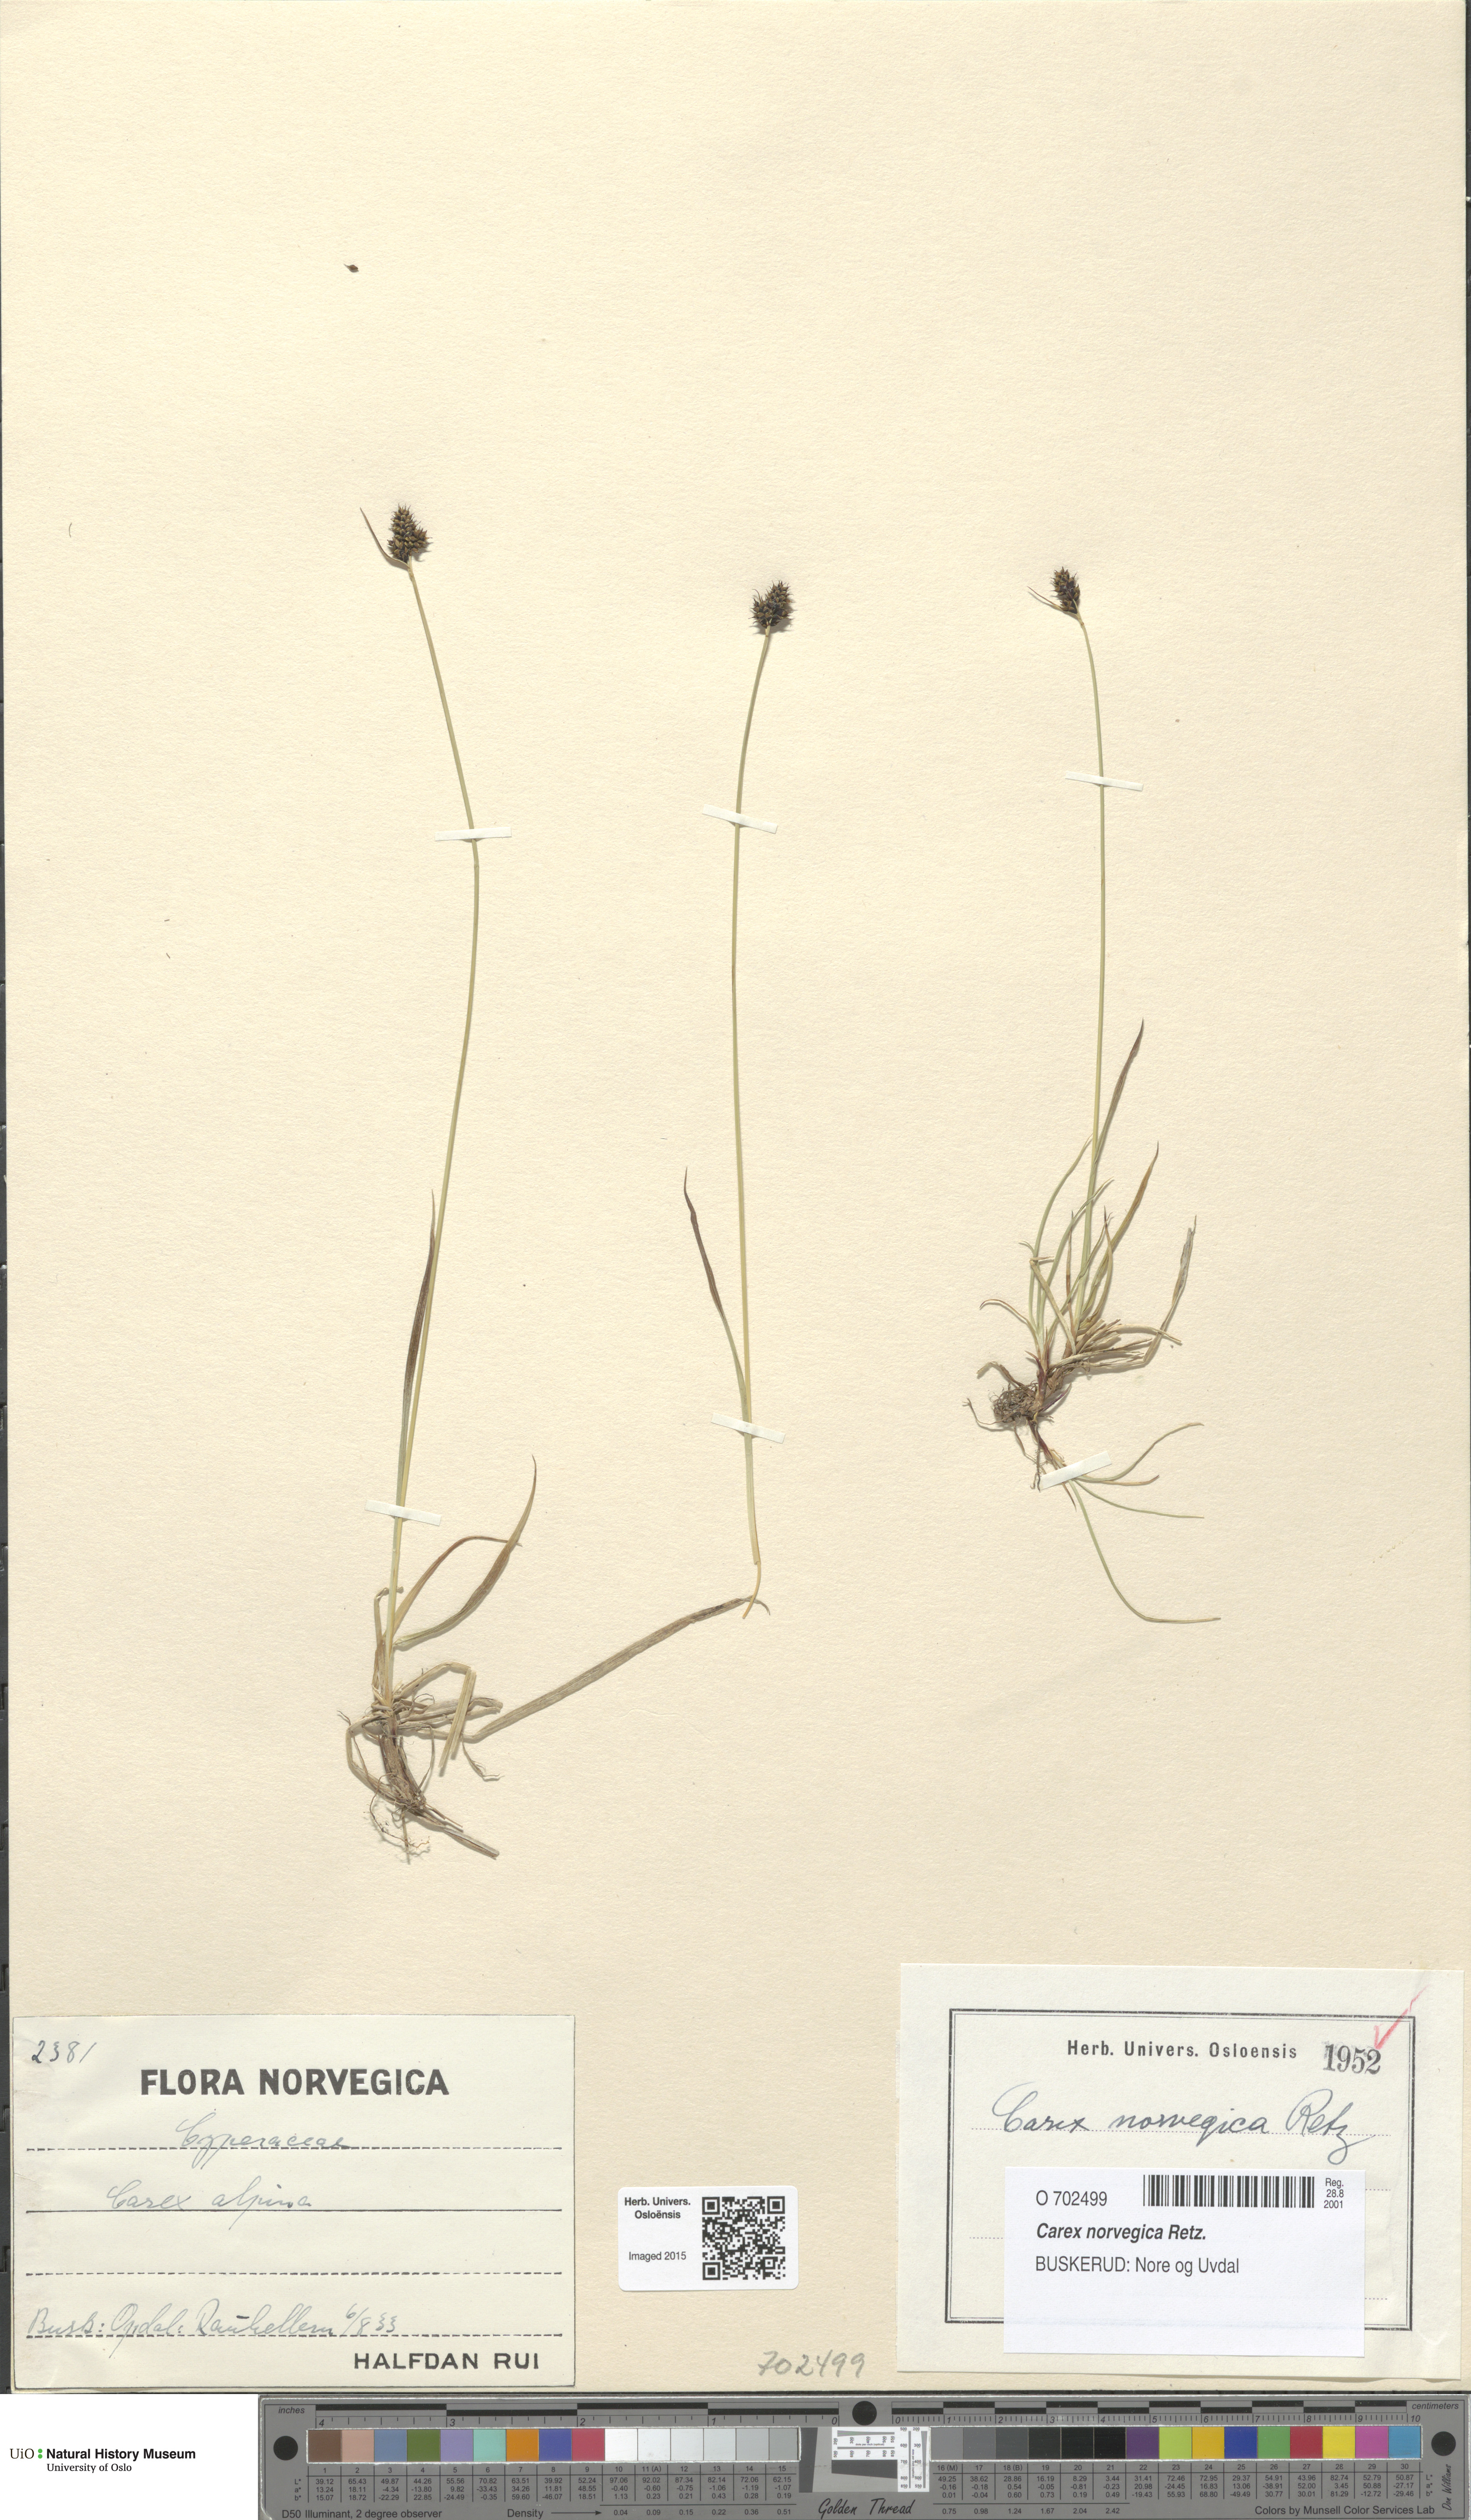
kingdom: Plantae
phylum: Tracheophyta
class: Liliopsida
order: Poales
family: Cyperaceae
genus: Carex
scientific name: Carex norvegica
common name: Close-headed alpine-sedge
